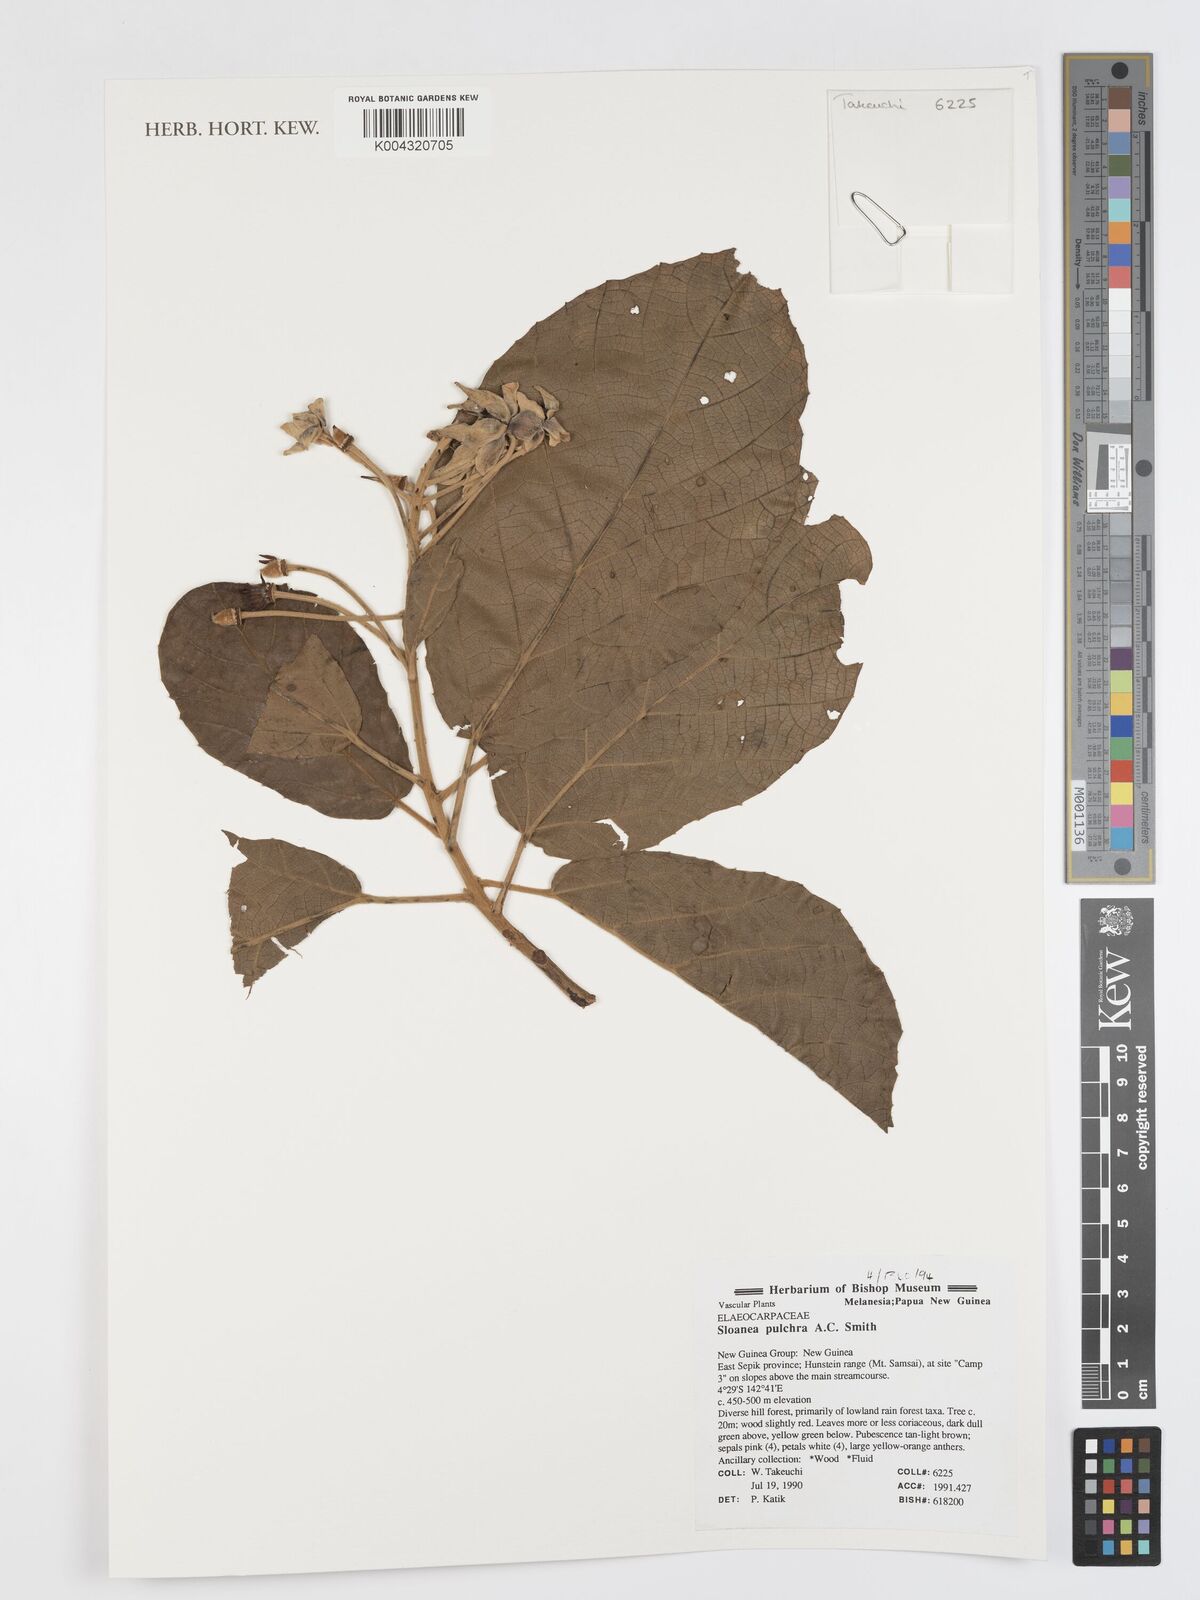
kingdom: Plantae
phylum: Tracheophyta
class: Magnoliopsida
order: Oxalidales
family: Elaeocarpaceae
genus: Sloanea
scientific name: Sloanea pulchra
